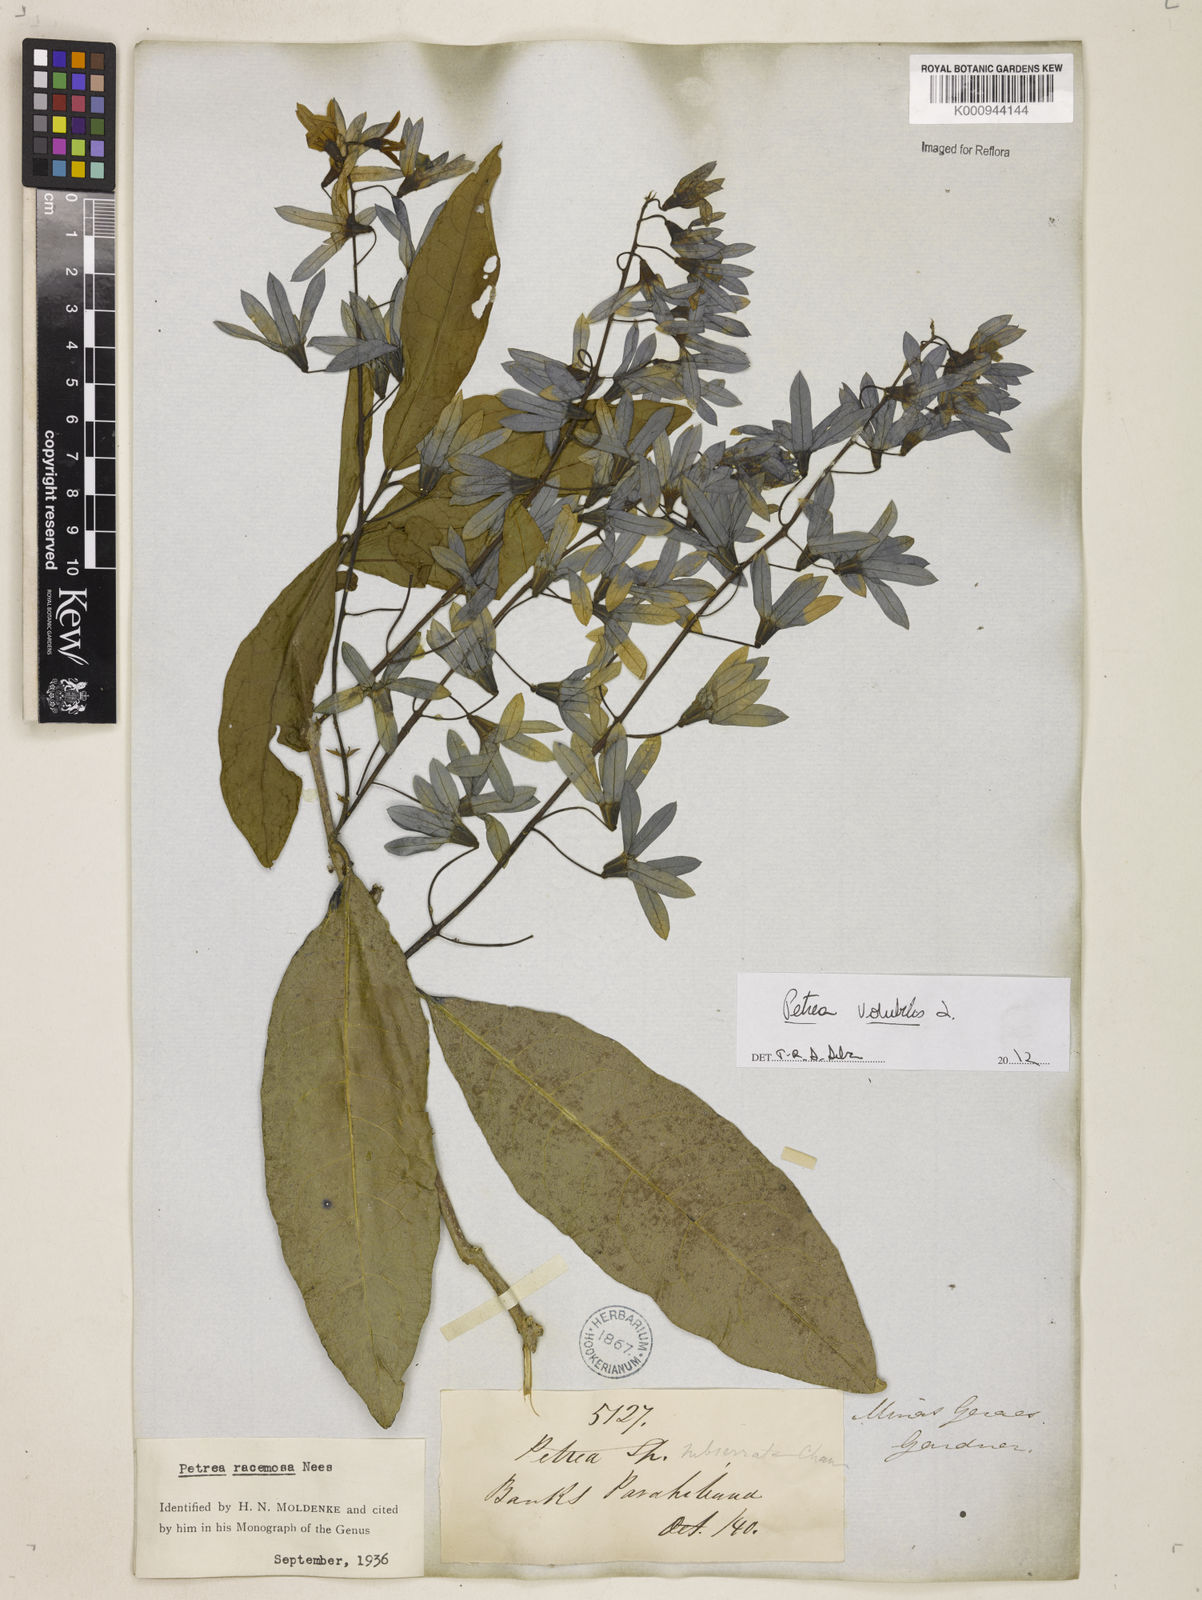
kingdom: Plantae
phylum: Tracheophyta
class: Magnoliopsida
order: Lamiales
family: Verbenaceae
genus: Petrea
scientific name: Petrea
